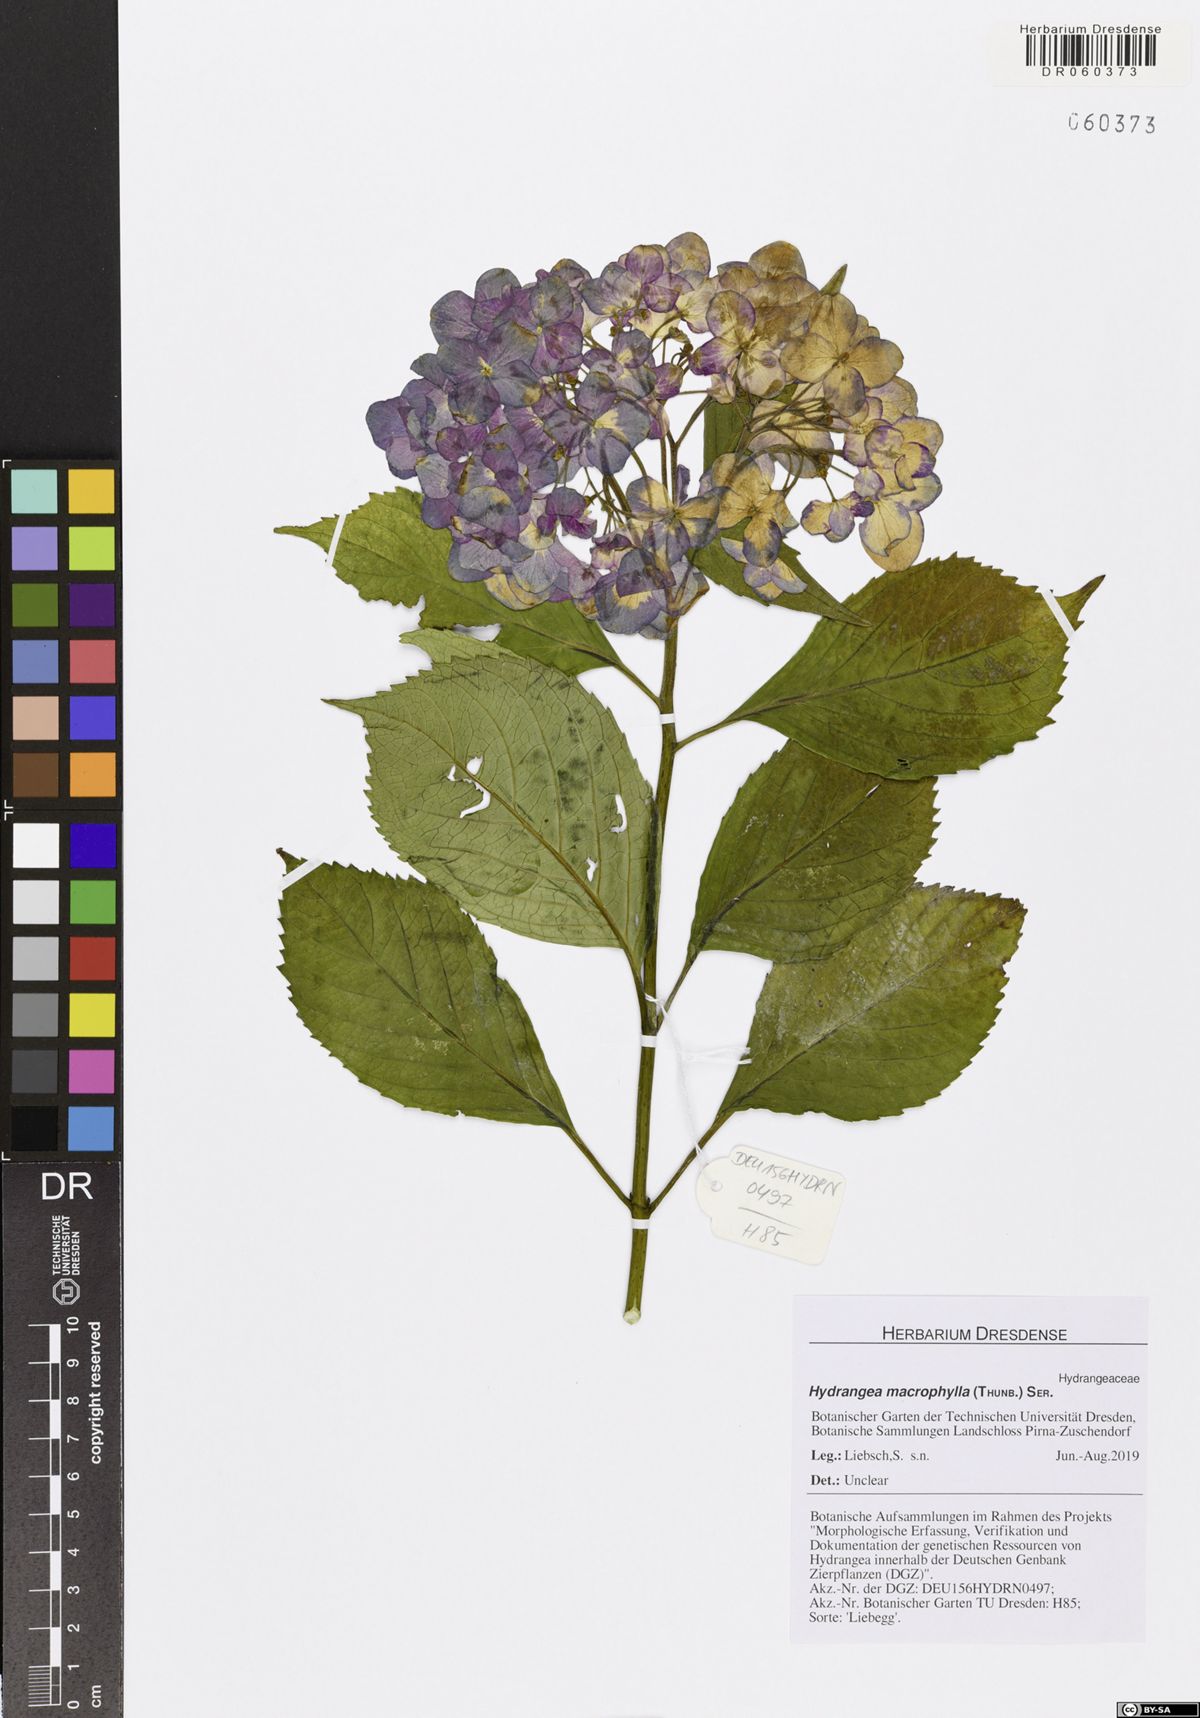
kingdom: Plantae
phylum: Tracheophyta
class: Magnoliopsida
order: Cornales
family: Hydrangeaceae
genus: Hydrangea
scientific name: Hydrangea macrophylla
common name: Hydrangea
